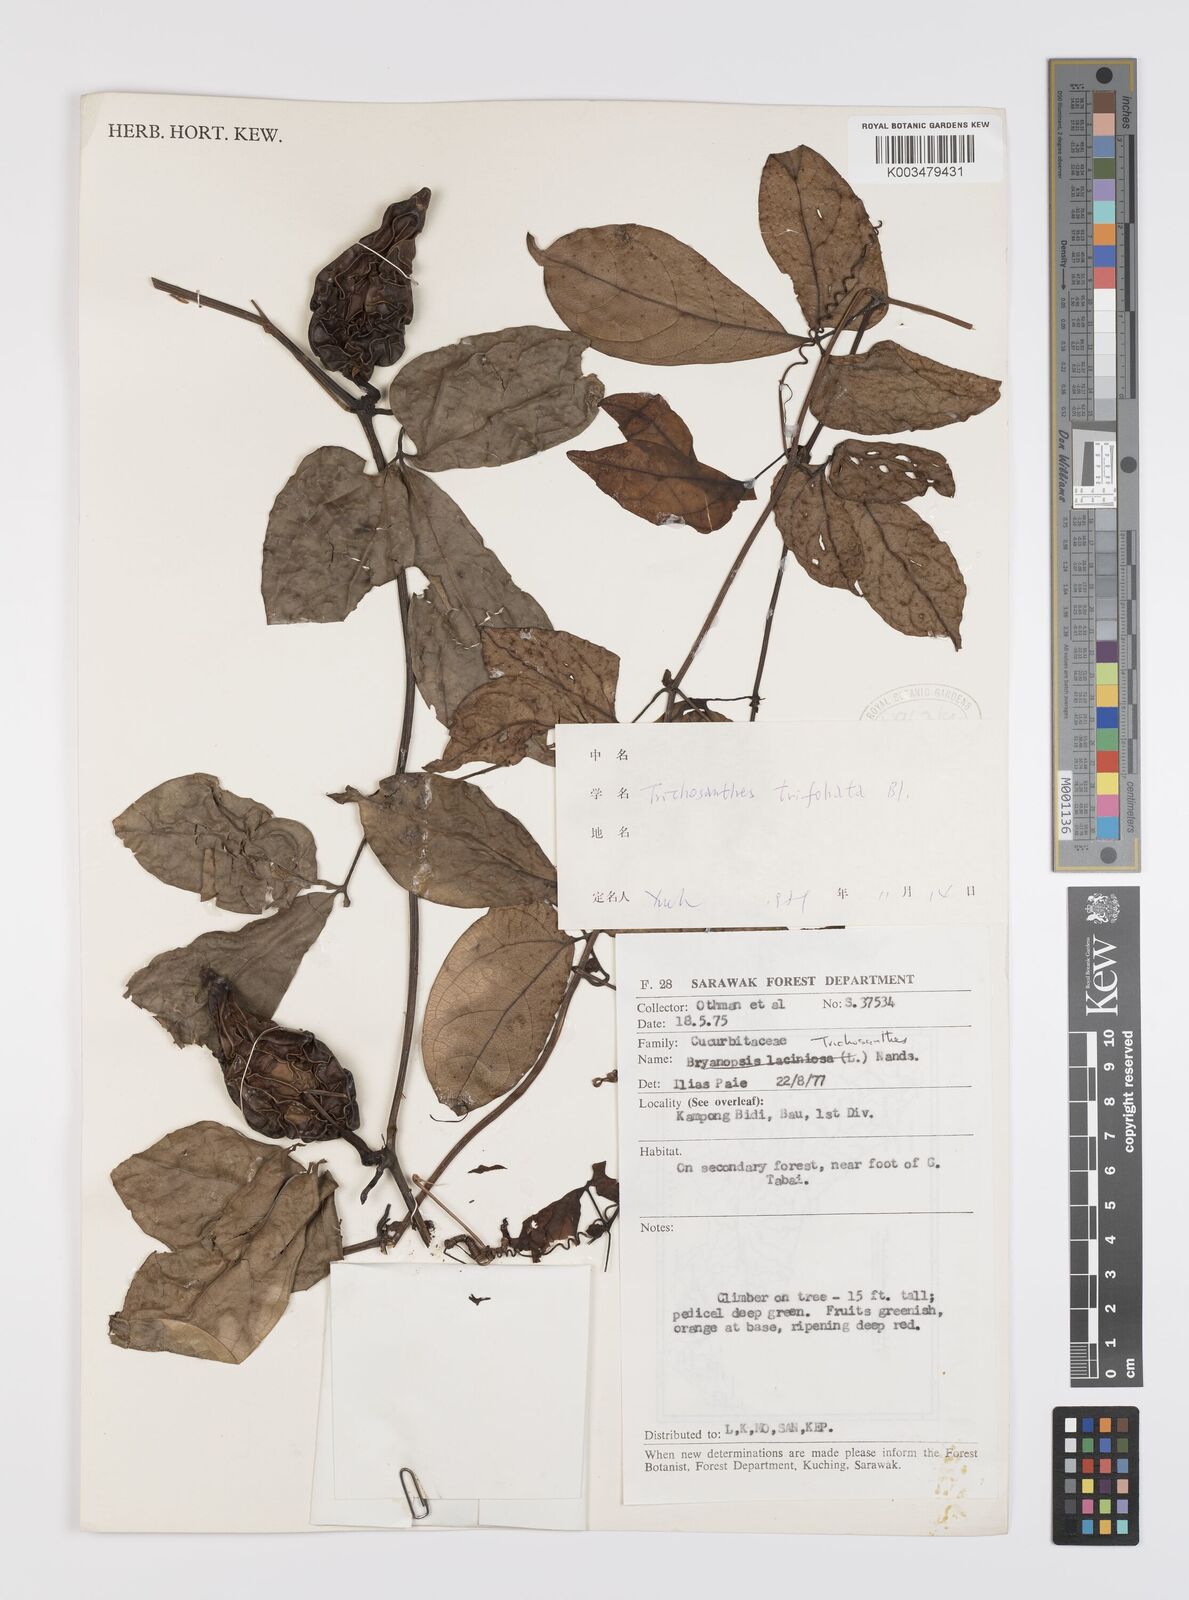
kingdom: Plantae
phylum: Tracheophyta
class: Magnoliopsida
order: Cucurbitales
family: Cucurbitaceae
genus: Trichosanthes
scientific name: Trichosanthes pentaphylla
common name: Red gourd
